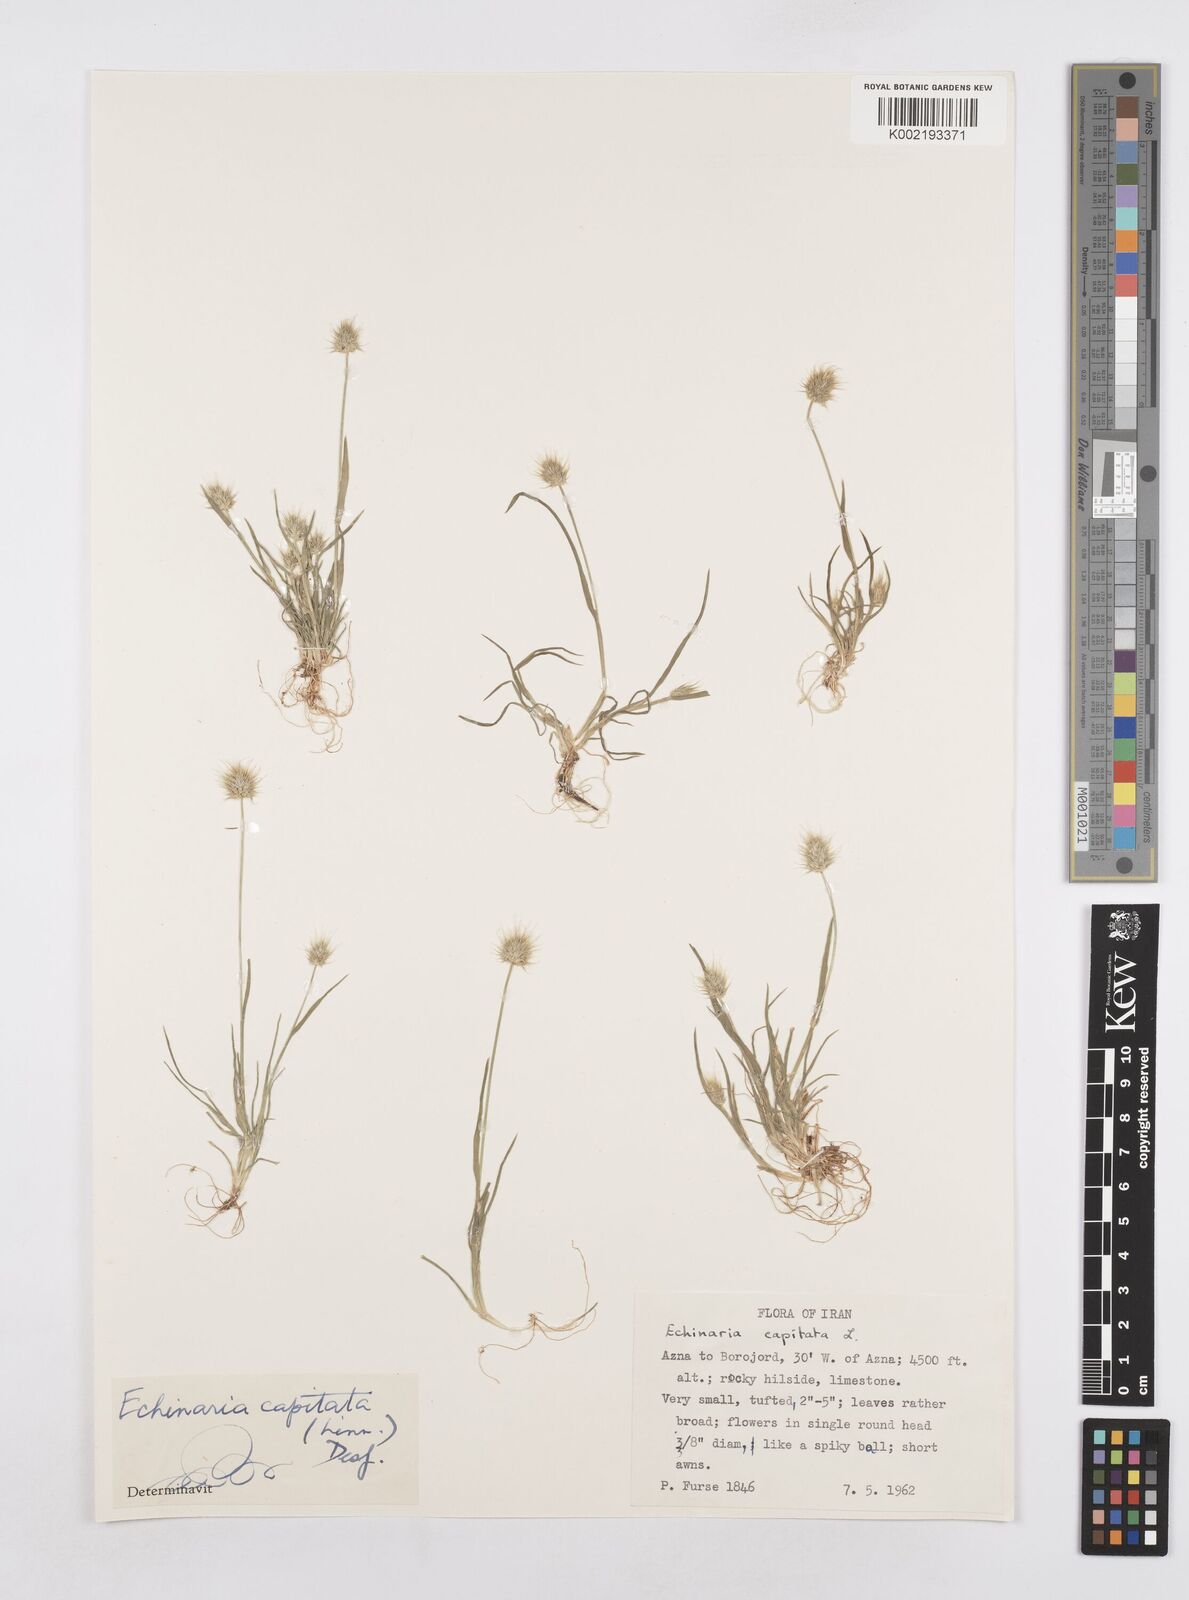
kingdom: Plantae
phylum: Tracheophyta
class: Liliopsida
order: Poales
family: Poaceae
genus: Echinaria
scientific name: Echinaria capitata
